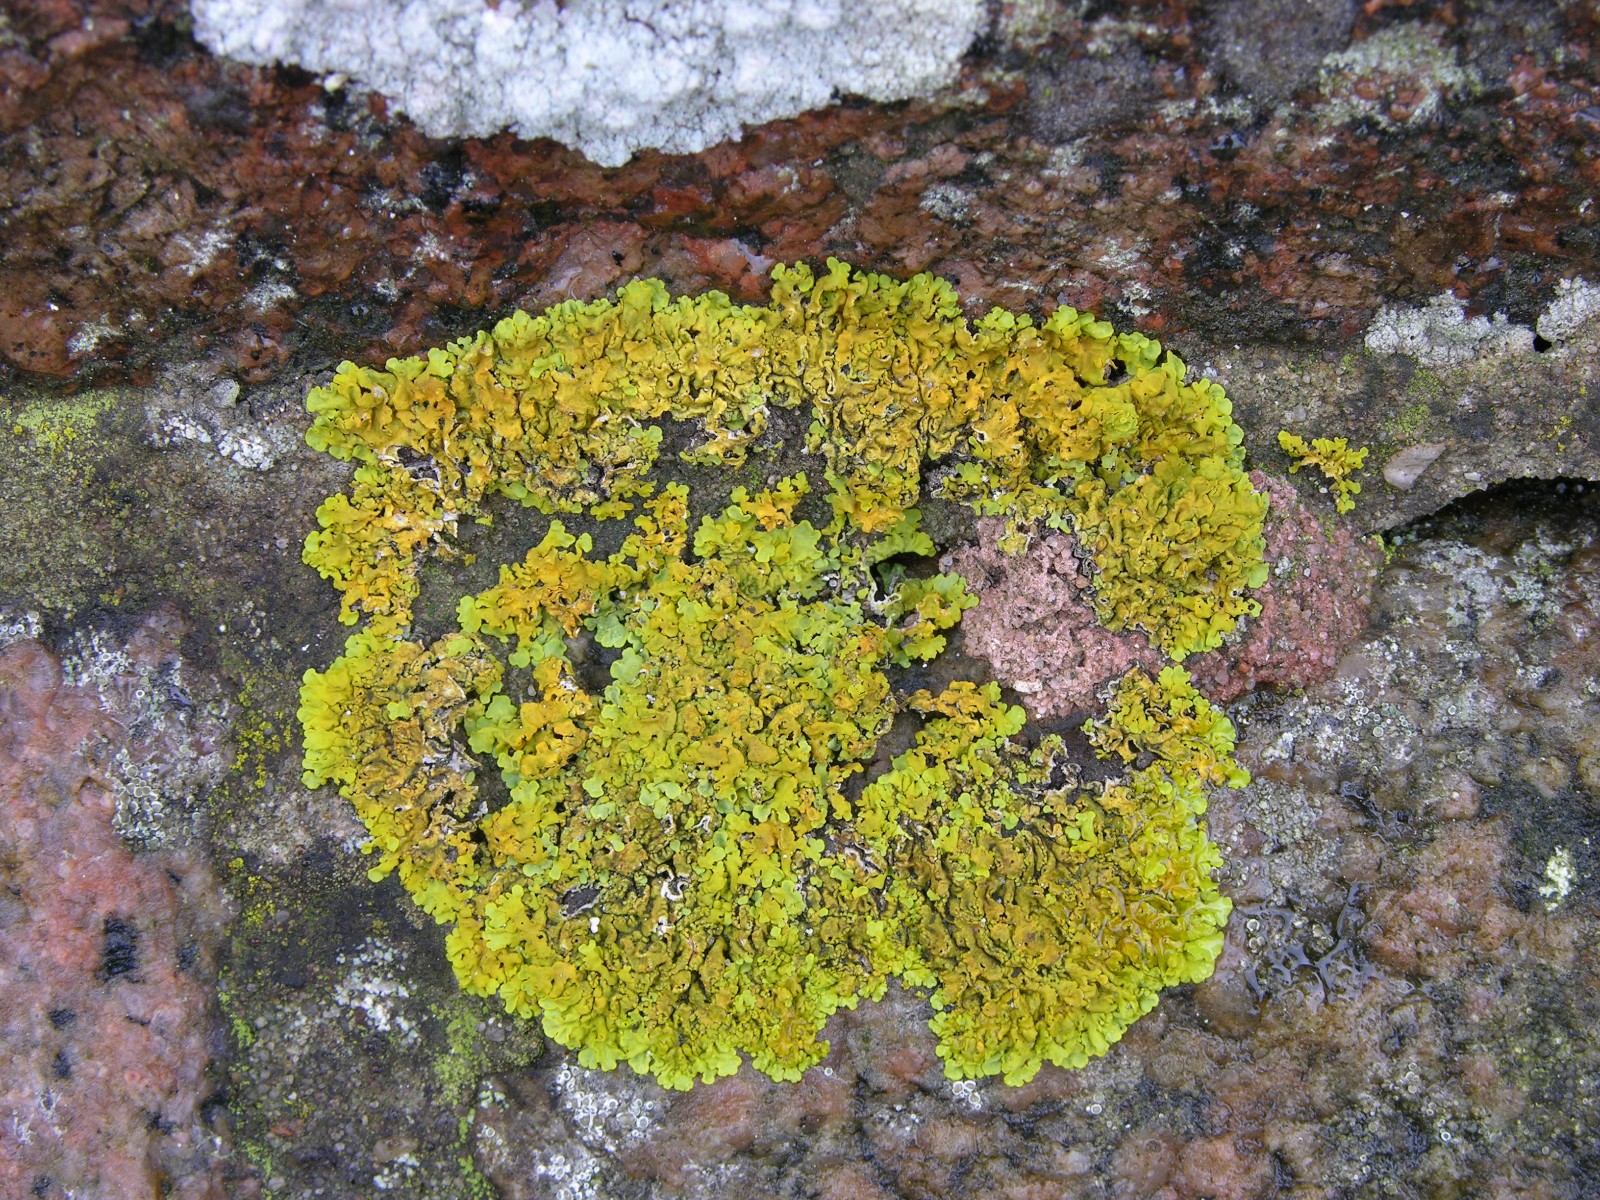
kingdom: Fungi
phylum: Ascomycota
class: Lecanoromycetes
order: Teloschistales
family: Teloschistaceae
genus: Xanthoria
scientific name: Xanthoria parietina
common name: almindelig væggelav
